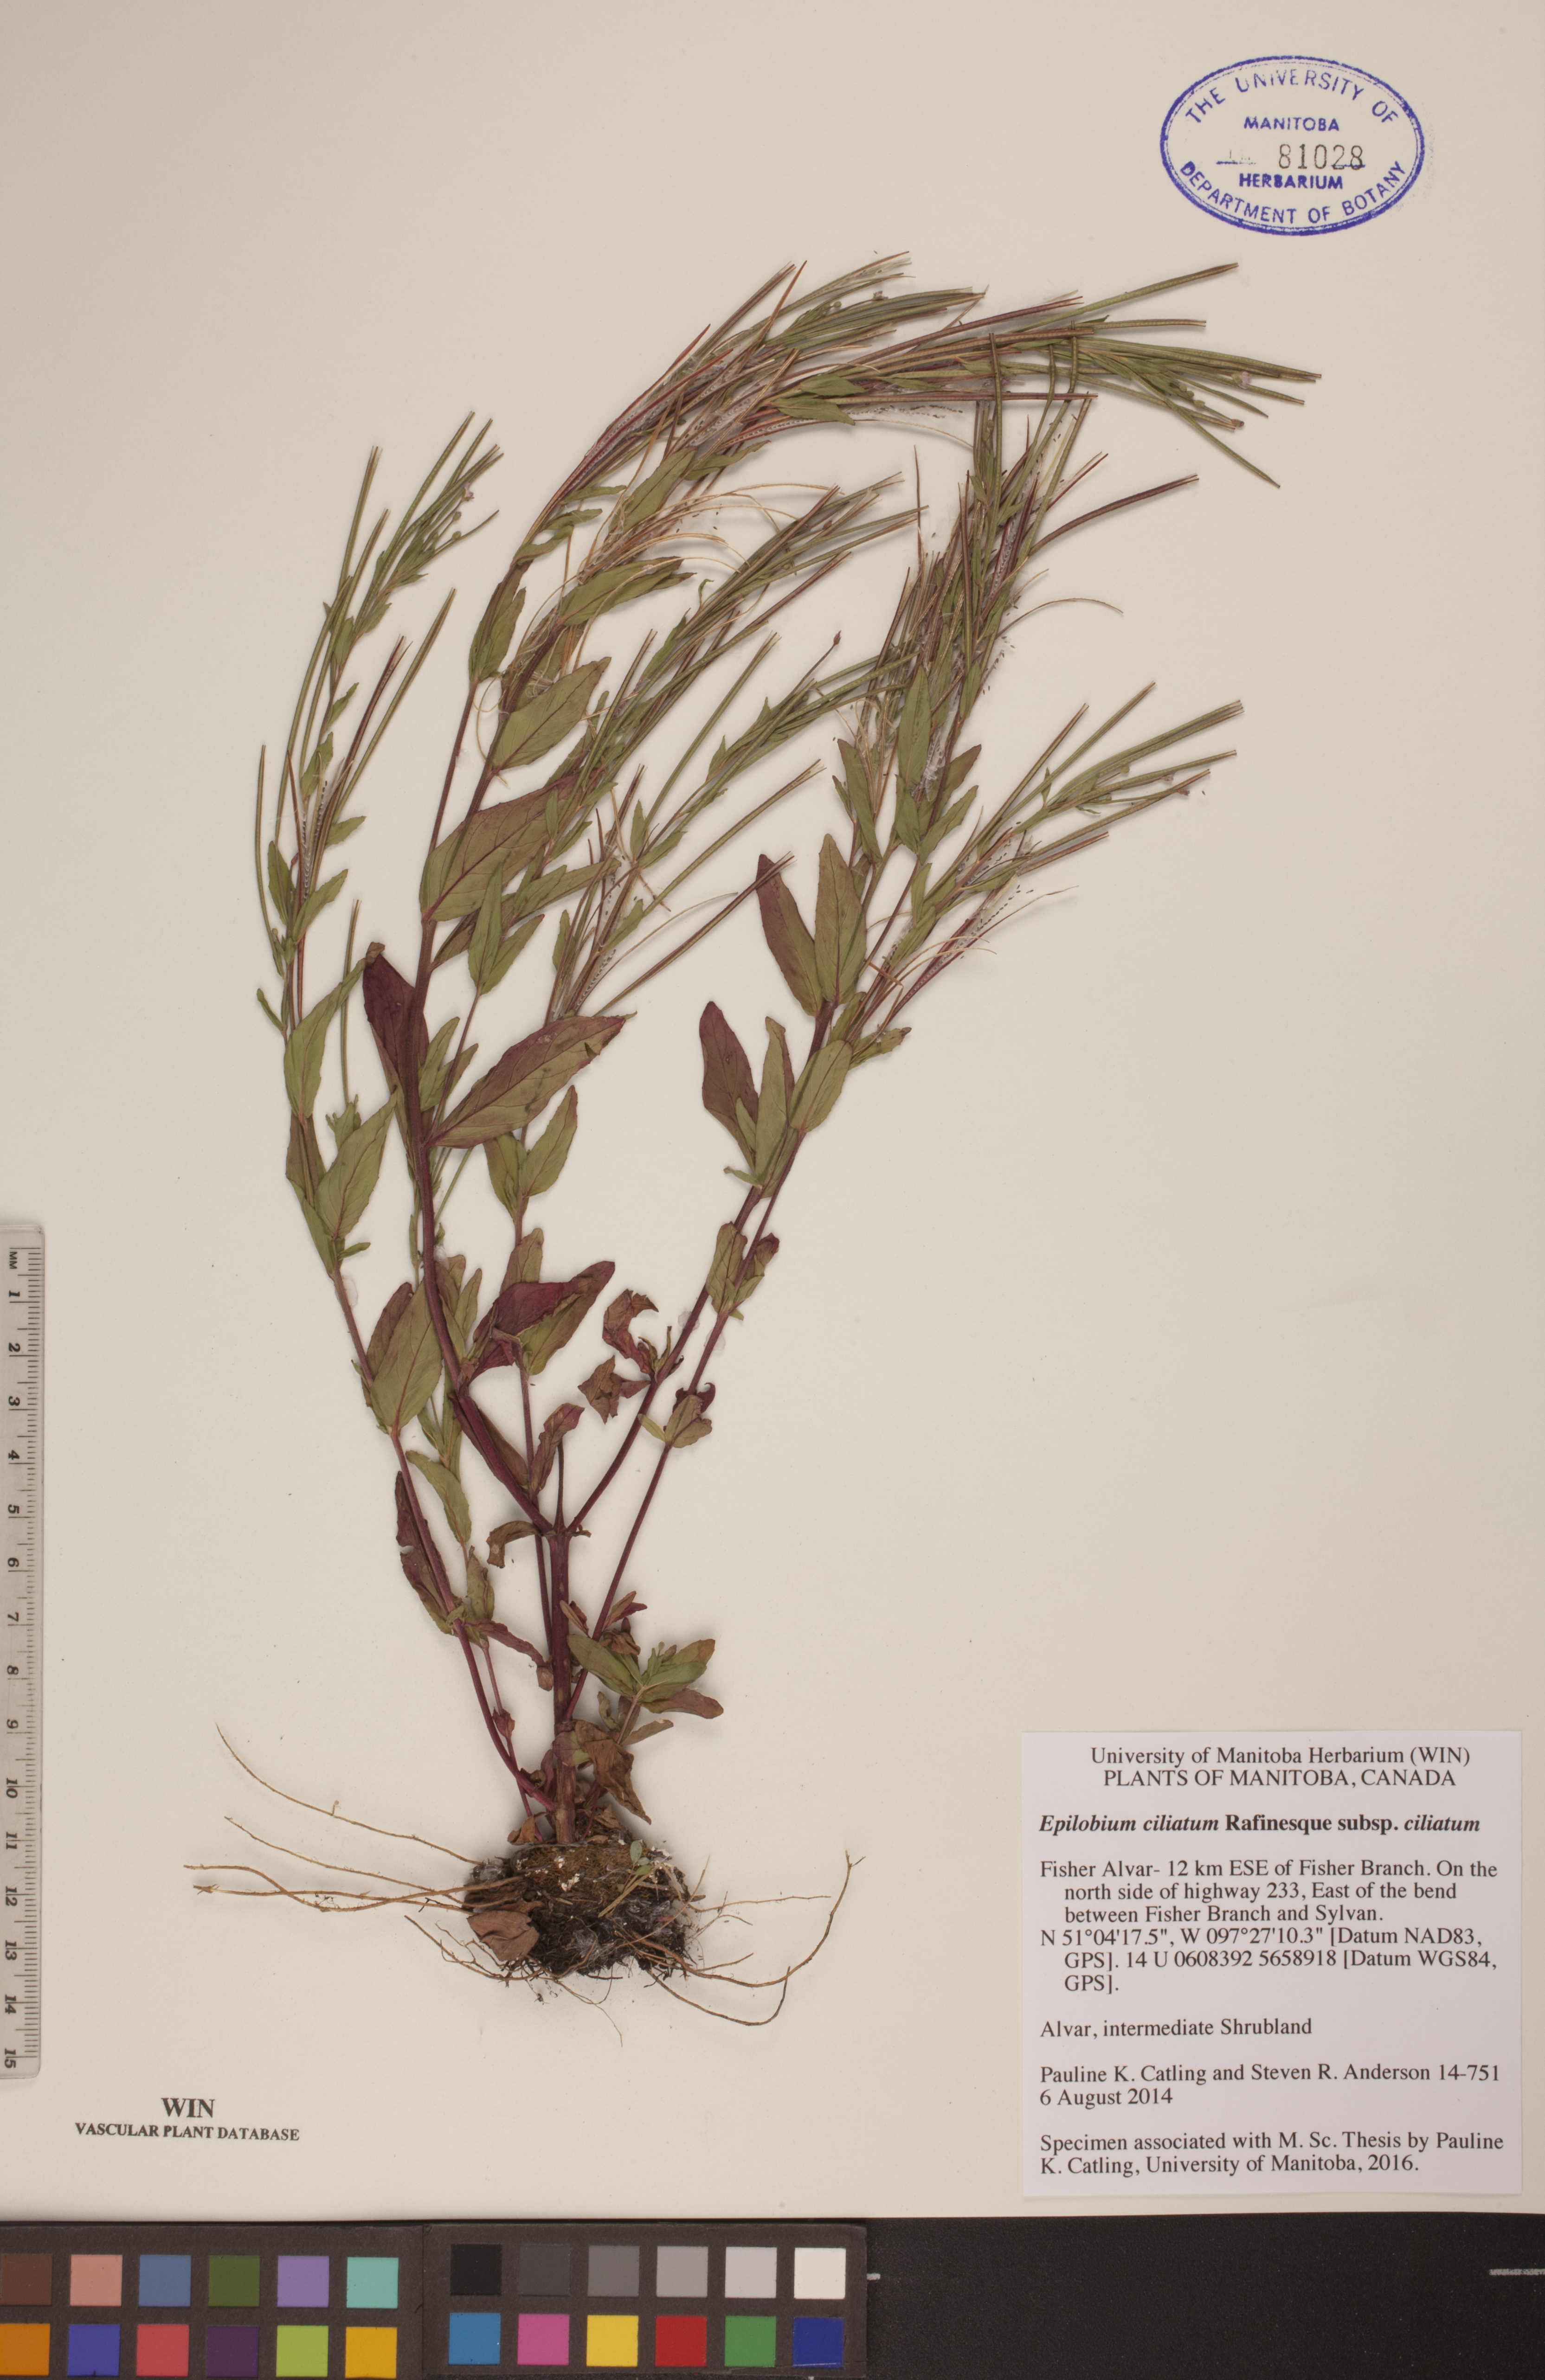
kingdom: Plantae
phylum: Tracheophyta
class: Magnoliopsida
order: Myrtales
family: Onagraceae
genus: Epilobium
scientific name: Epilobium ciliatum
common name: American willowherb
